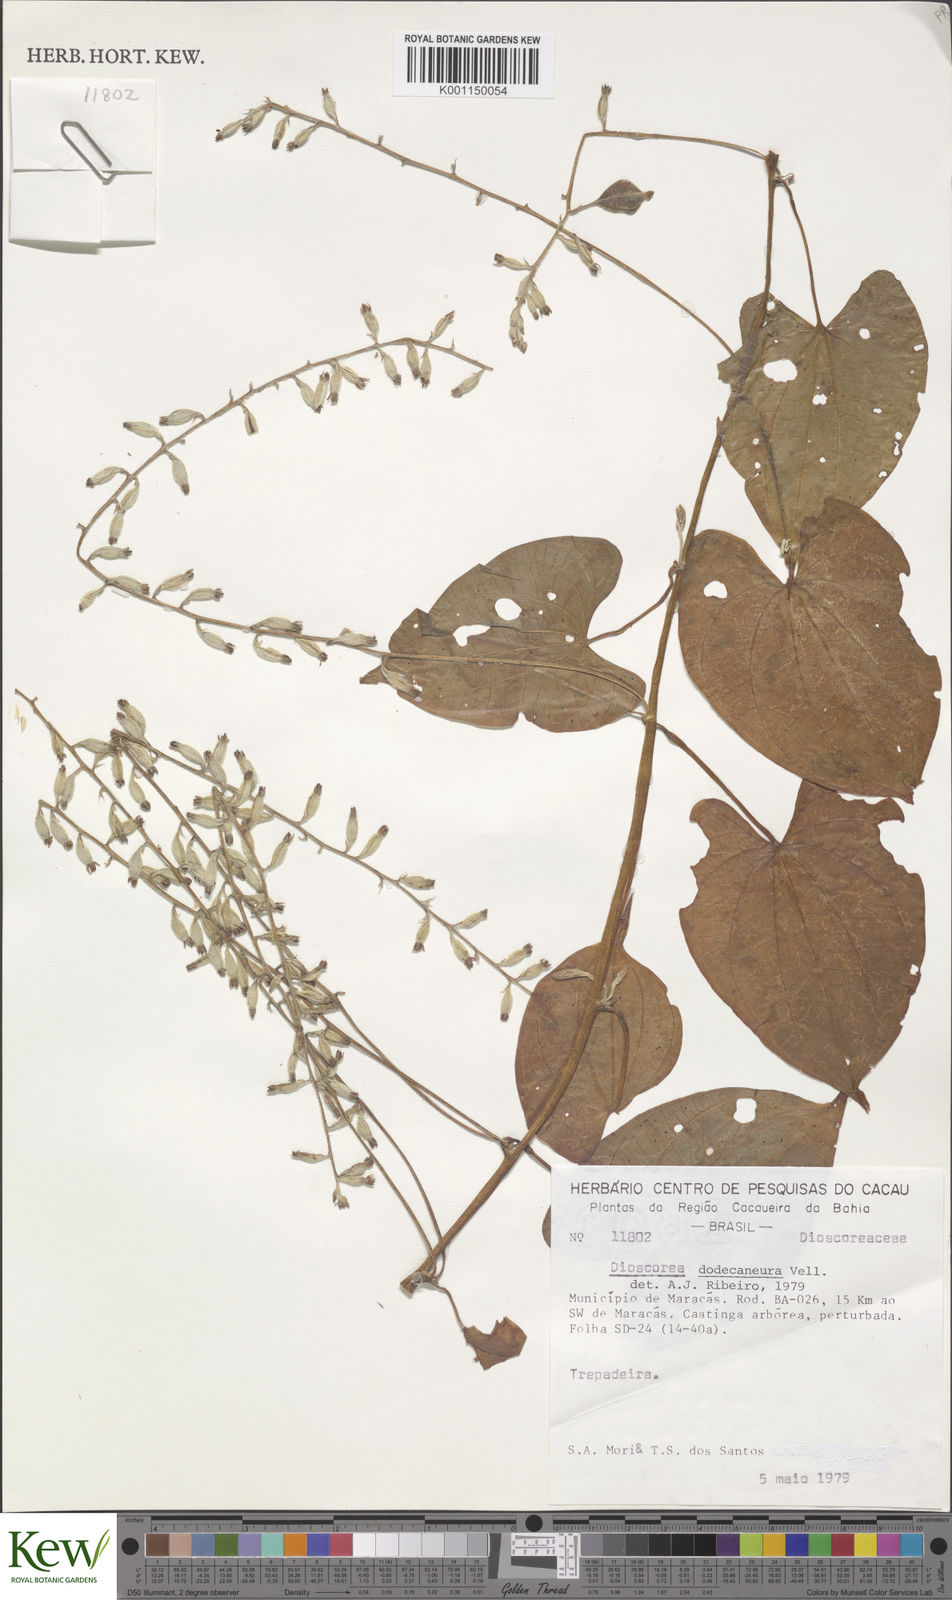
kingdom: Plantae
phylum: Tracheophyta
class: Liliopsida
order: Dioscoreales
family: Dioscoreaceae
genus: Dioscorea
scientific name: Dioscorea dodecaneura
